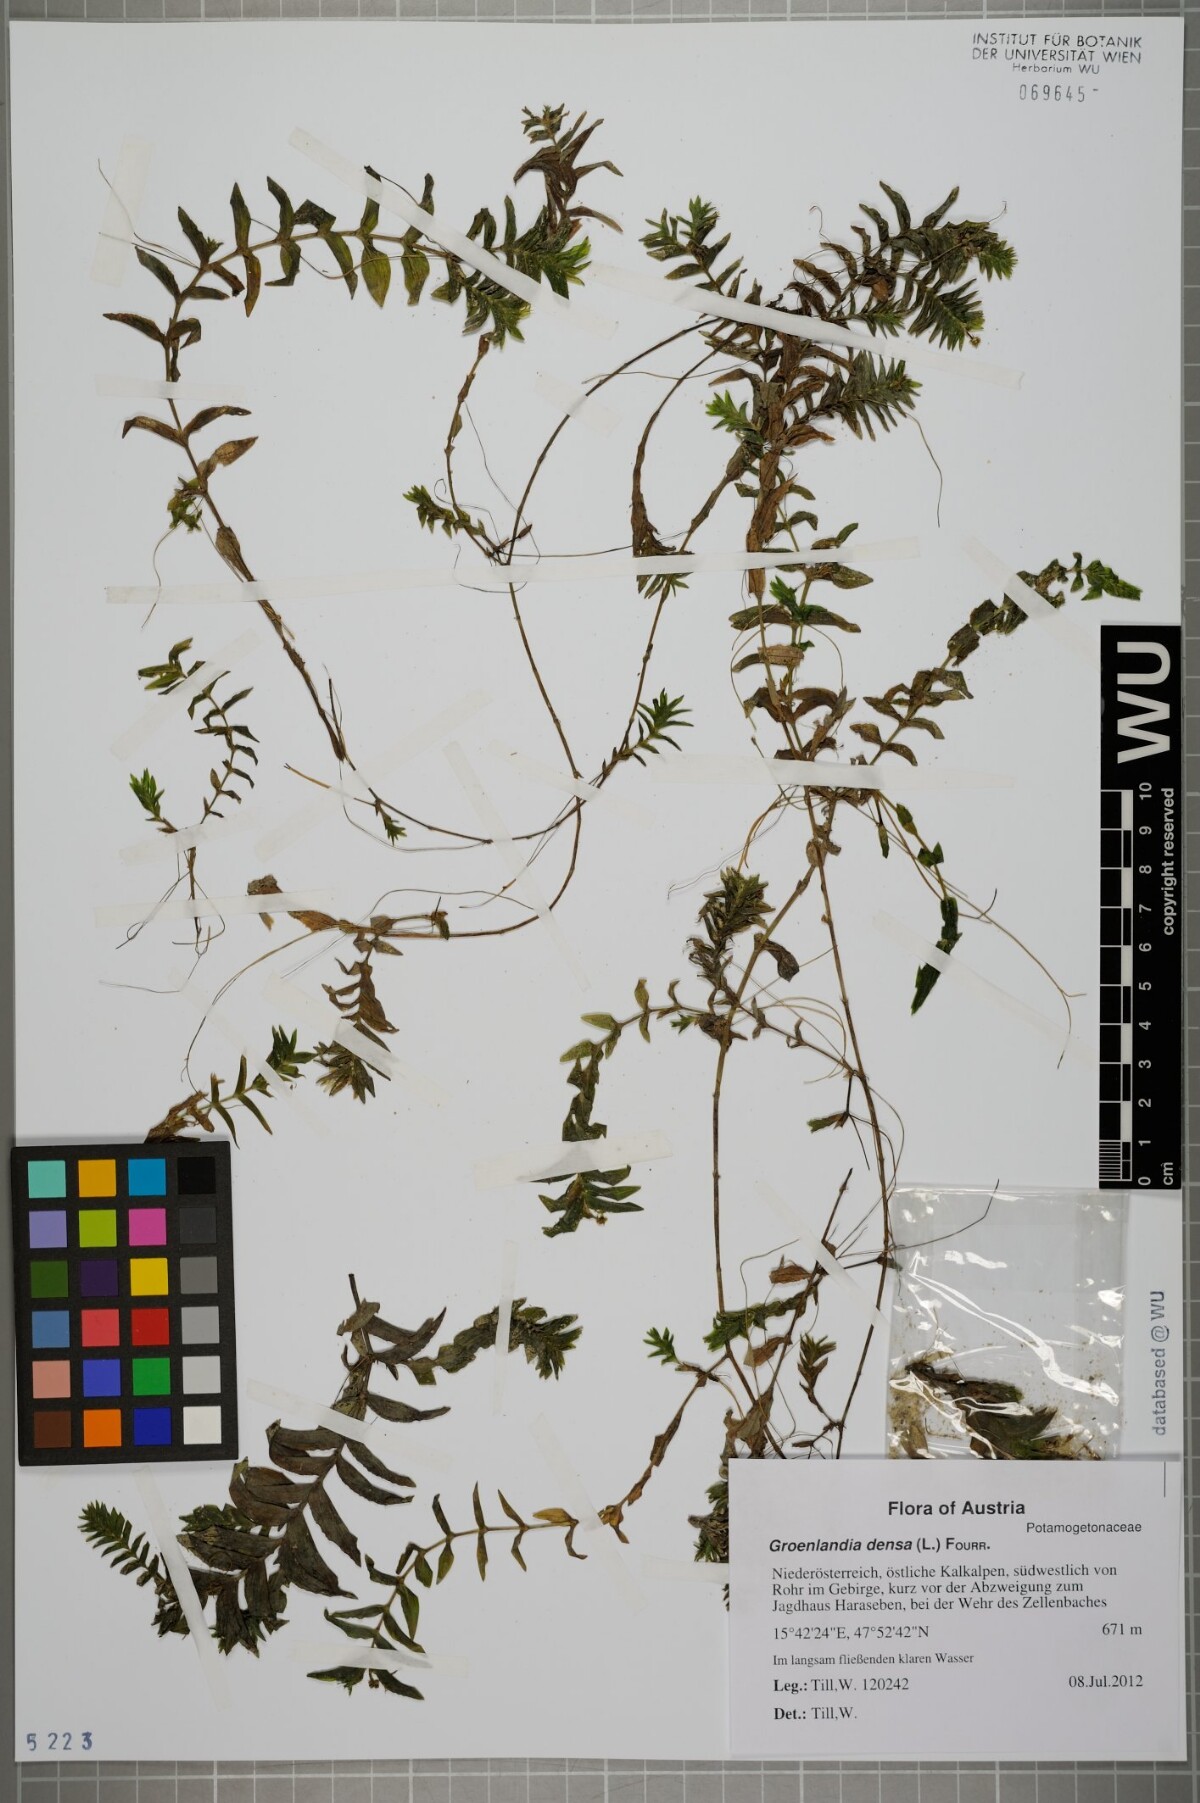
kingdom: Plantae
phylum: Tracheophyta
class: Liliopsida
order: Alismatales
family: Potamogetonaceae
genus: Groenlandia
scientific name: Groenlandia densa
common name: Opposite-leaved pondweed
